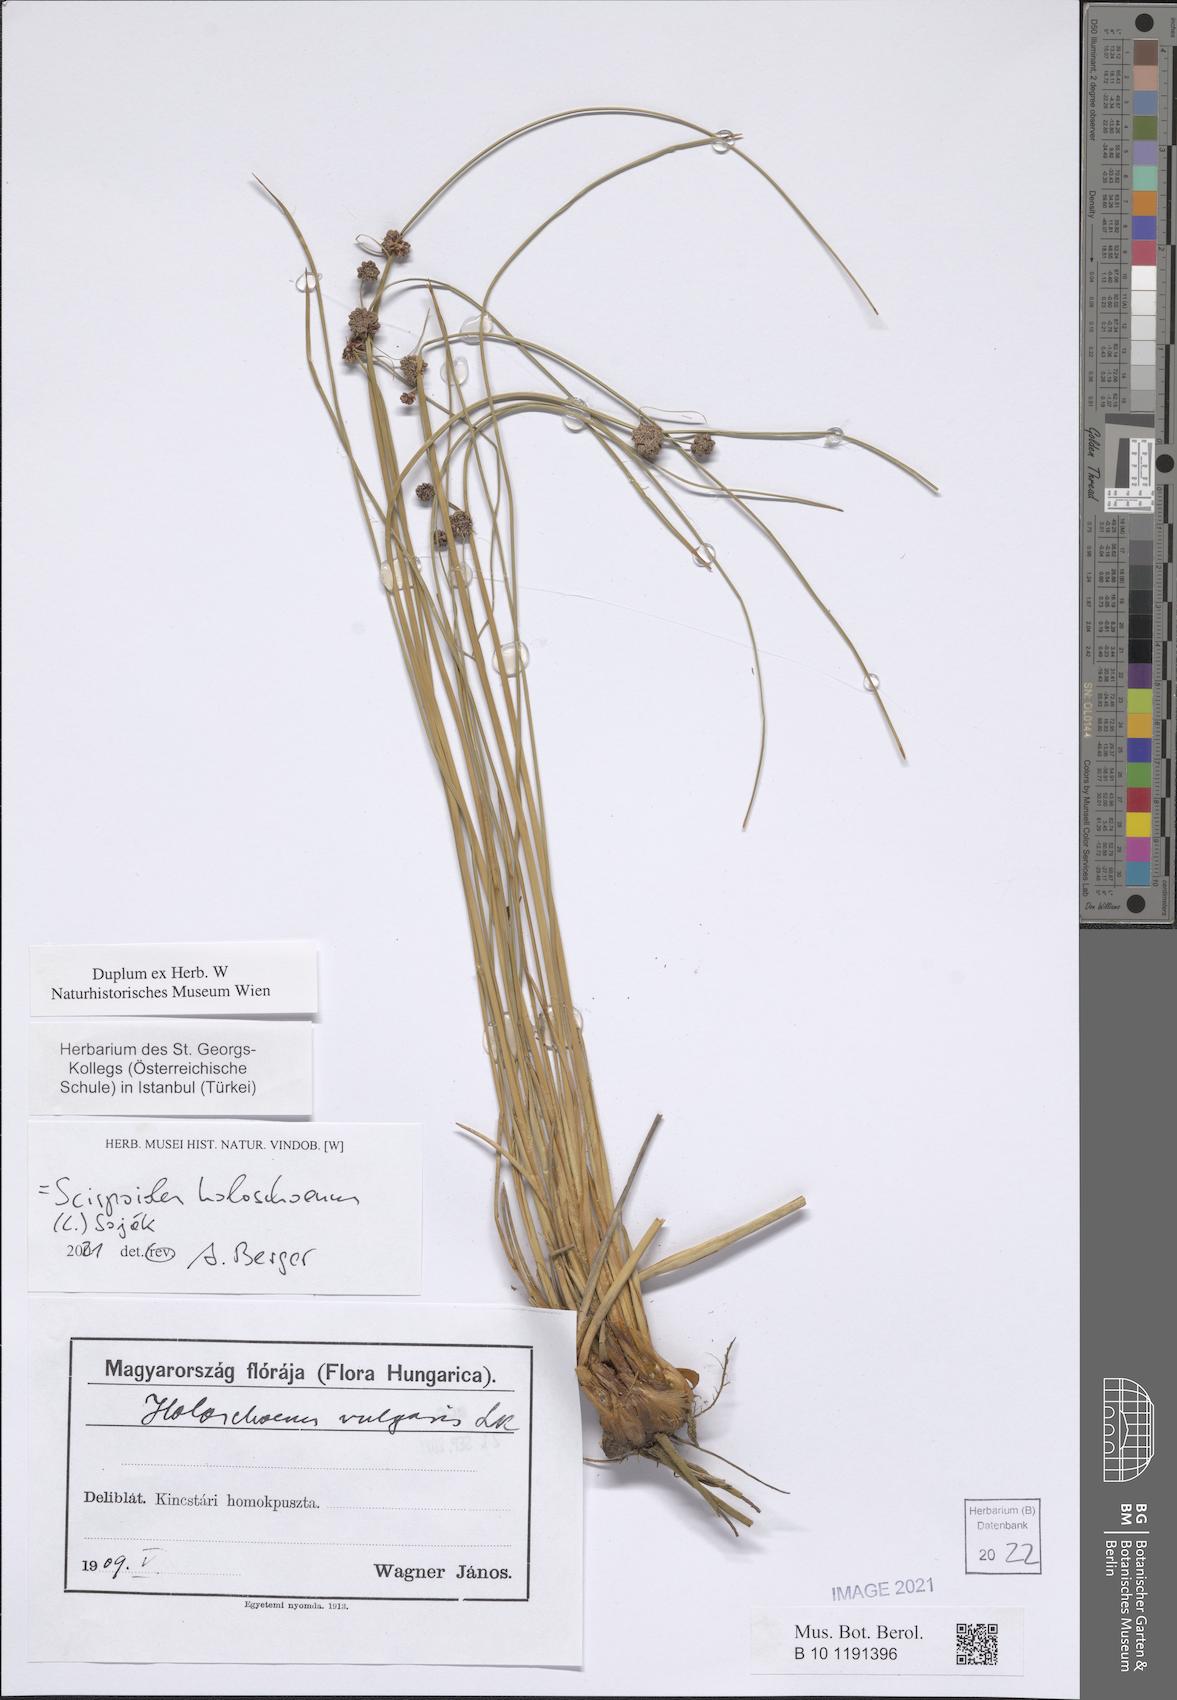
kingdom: Plantae
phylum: Tracheophyta
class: Liliopsida
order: Poales
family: Cyperaceae
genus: Scirpoides
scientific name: Scirpoides holoschoenus
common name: Round-headed club-rush
